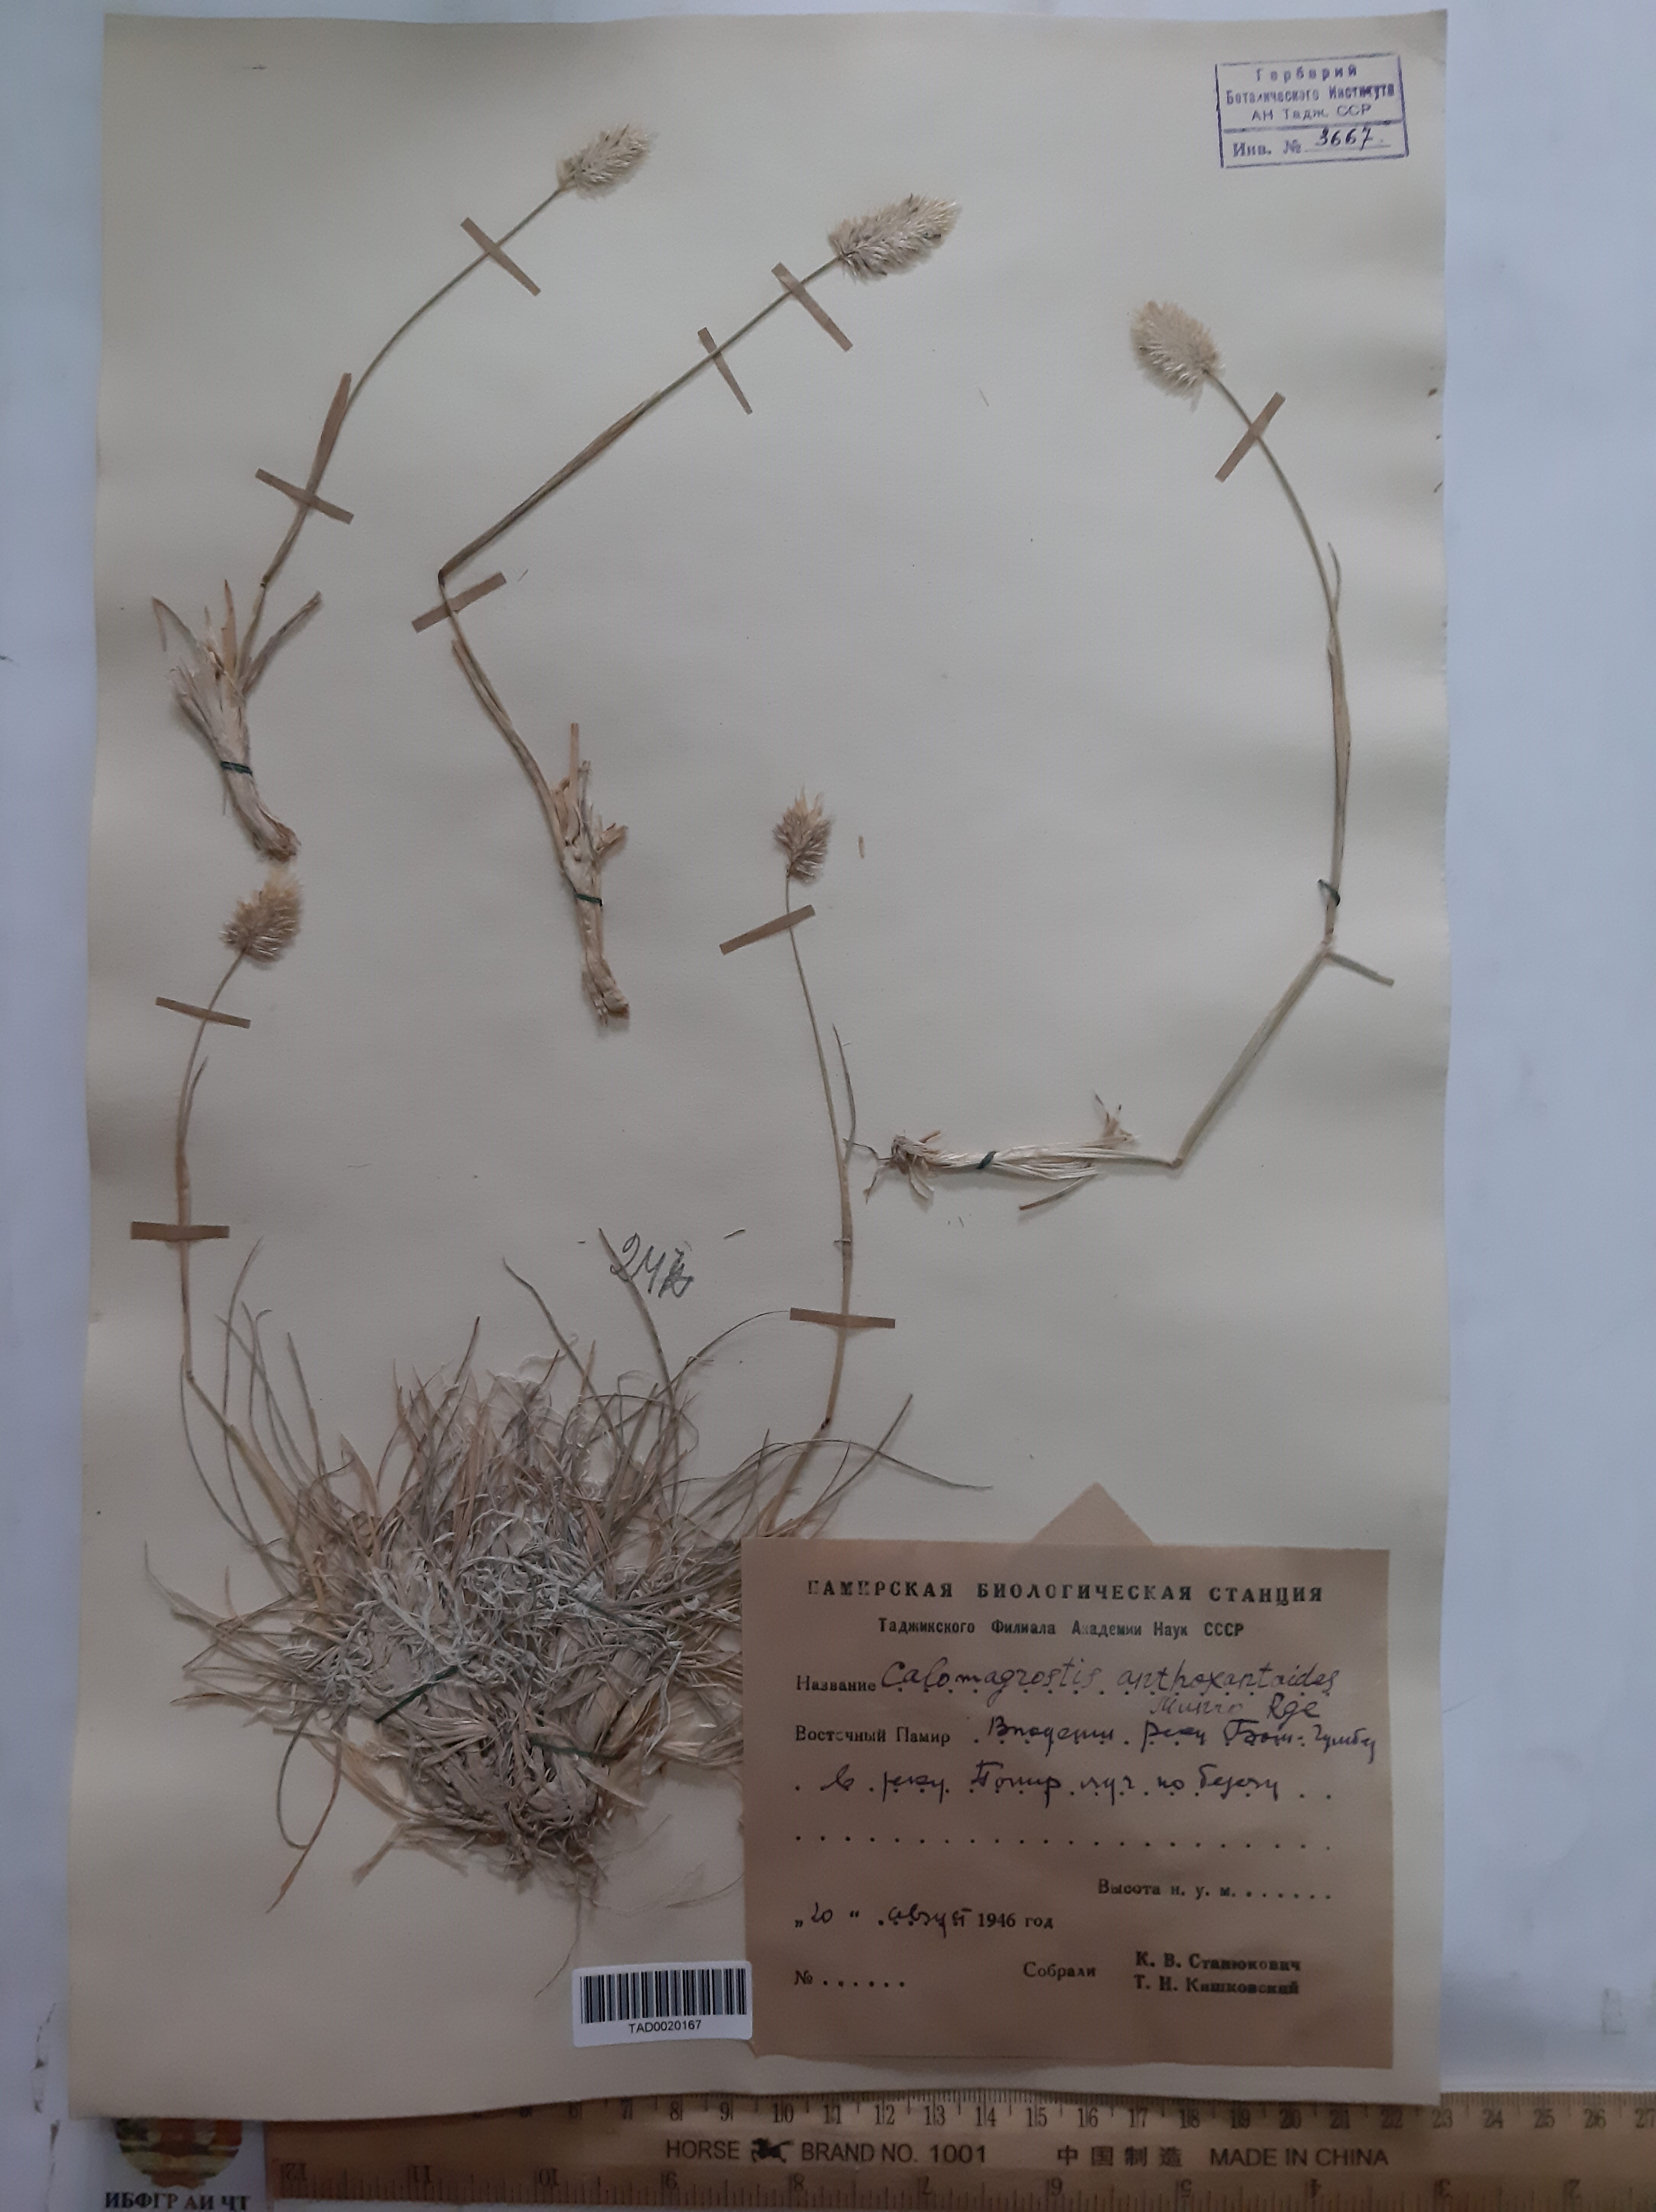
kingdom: Plantae
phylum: Tracheophyta
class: Liliopsida
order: Poales
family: Poaceae
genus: Calamagrostis
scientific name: Calamagrostis anthoxanthoides
